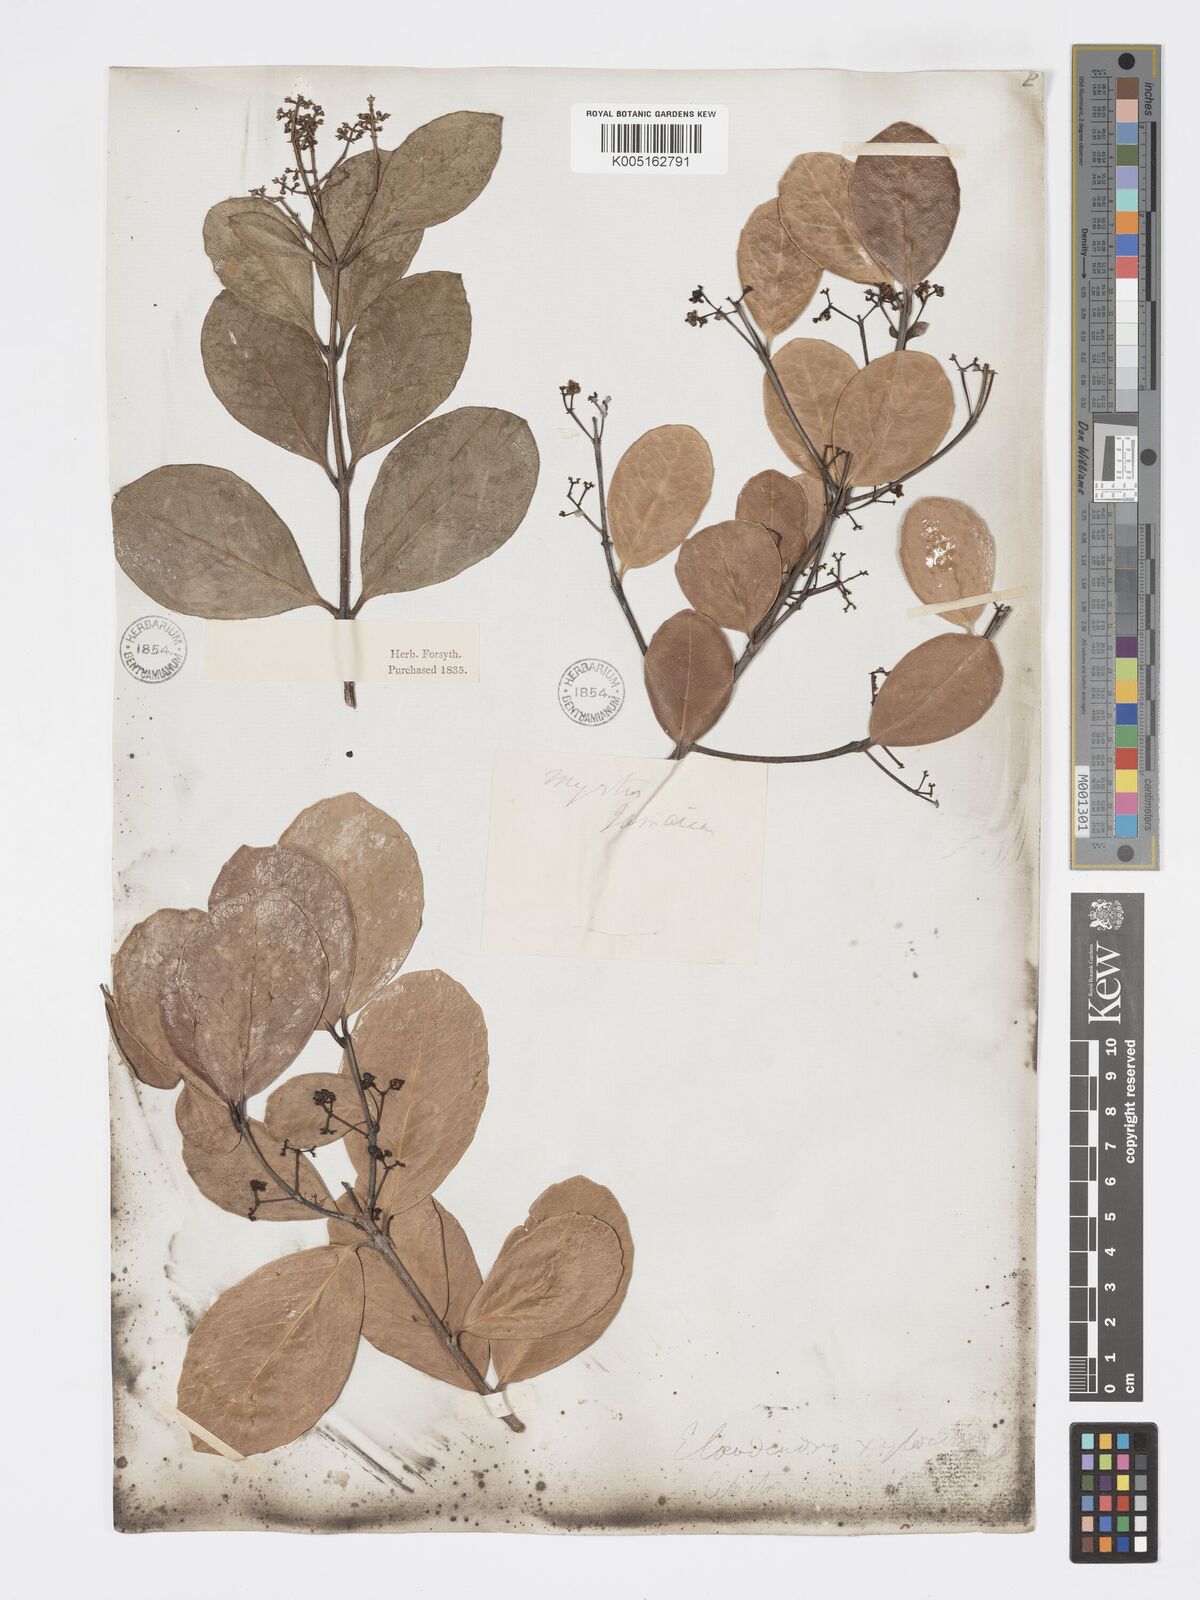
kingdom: Plantae
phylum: Tracheophyta
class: Magnoliopsida
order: Celastrales
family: Celastraceae
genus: Elaeodendron
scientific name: Elaeodendron
